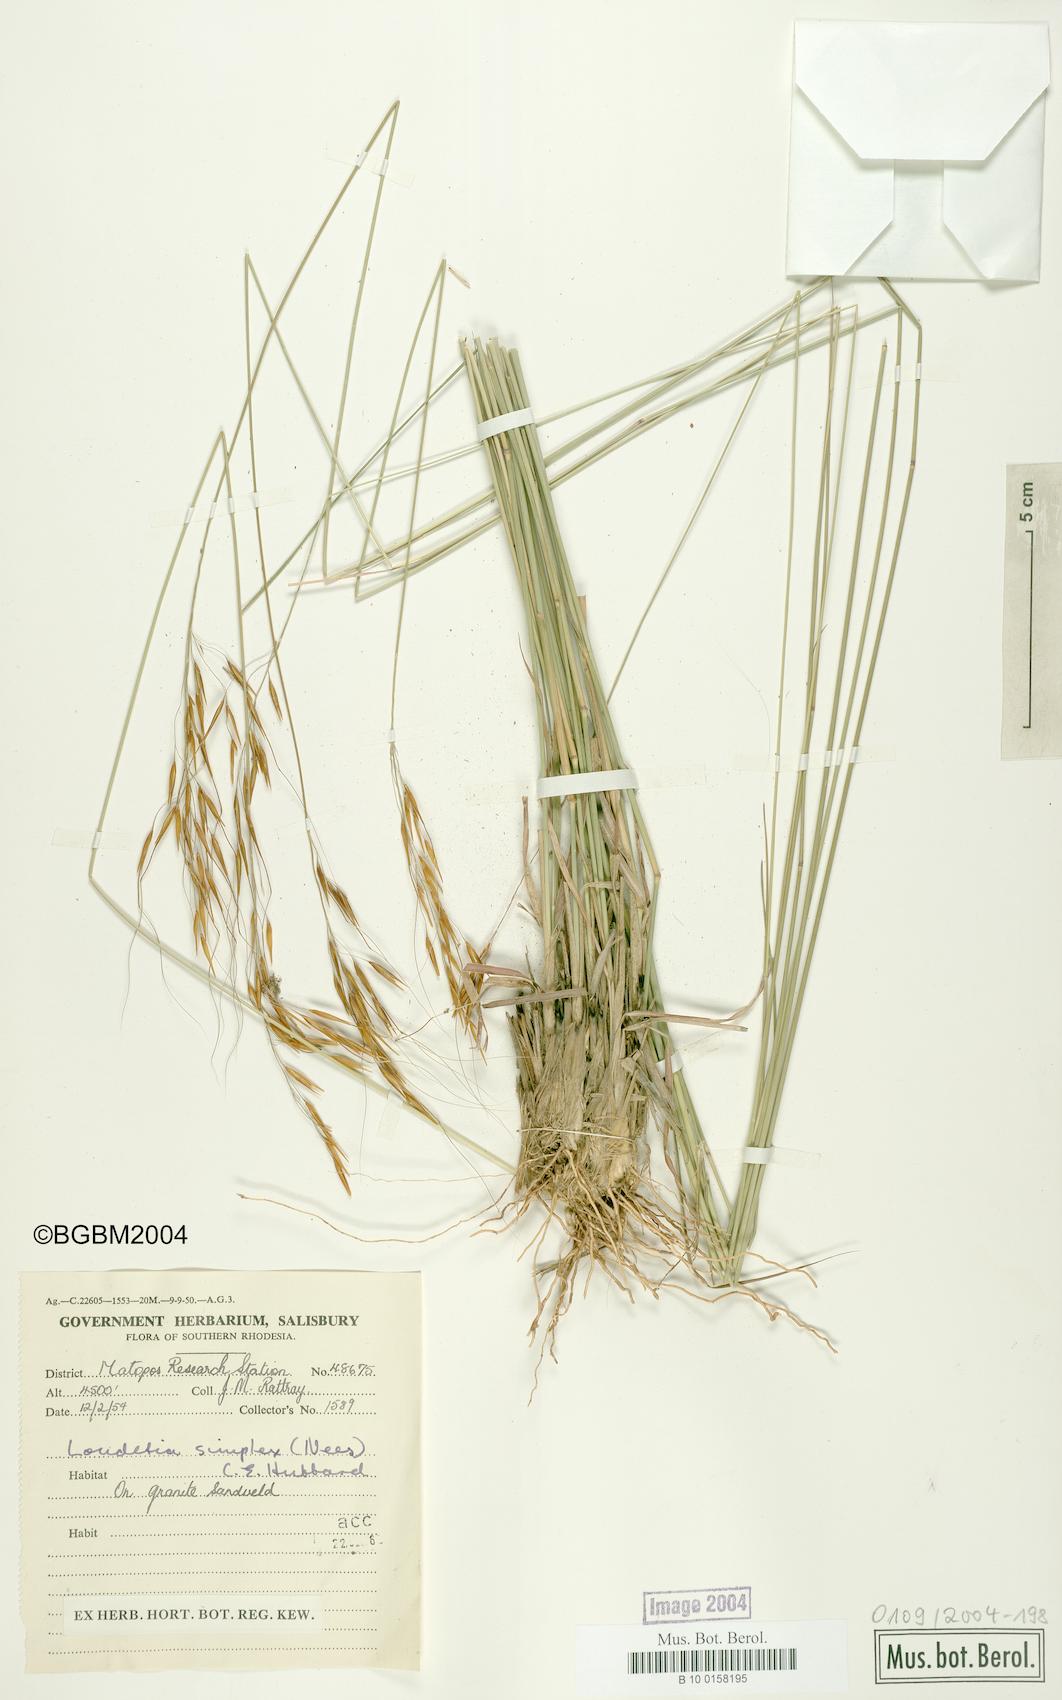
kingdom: Plantae
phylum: Tracheophyta
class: Liliopsida
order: Poales
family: Poaceae
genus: Loudetia
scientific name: Loudetia simplex
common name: Common russet grass
